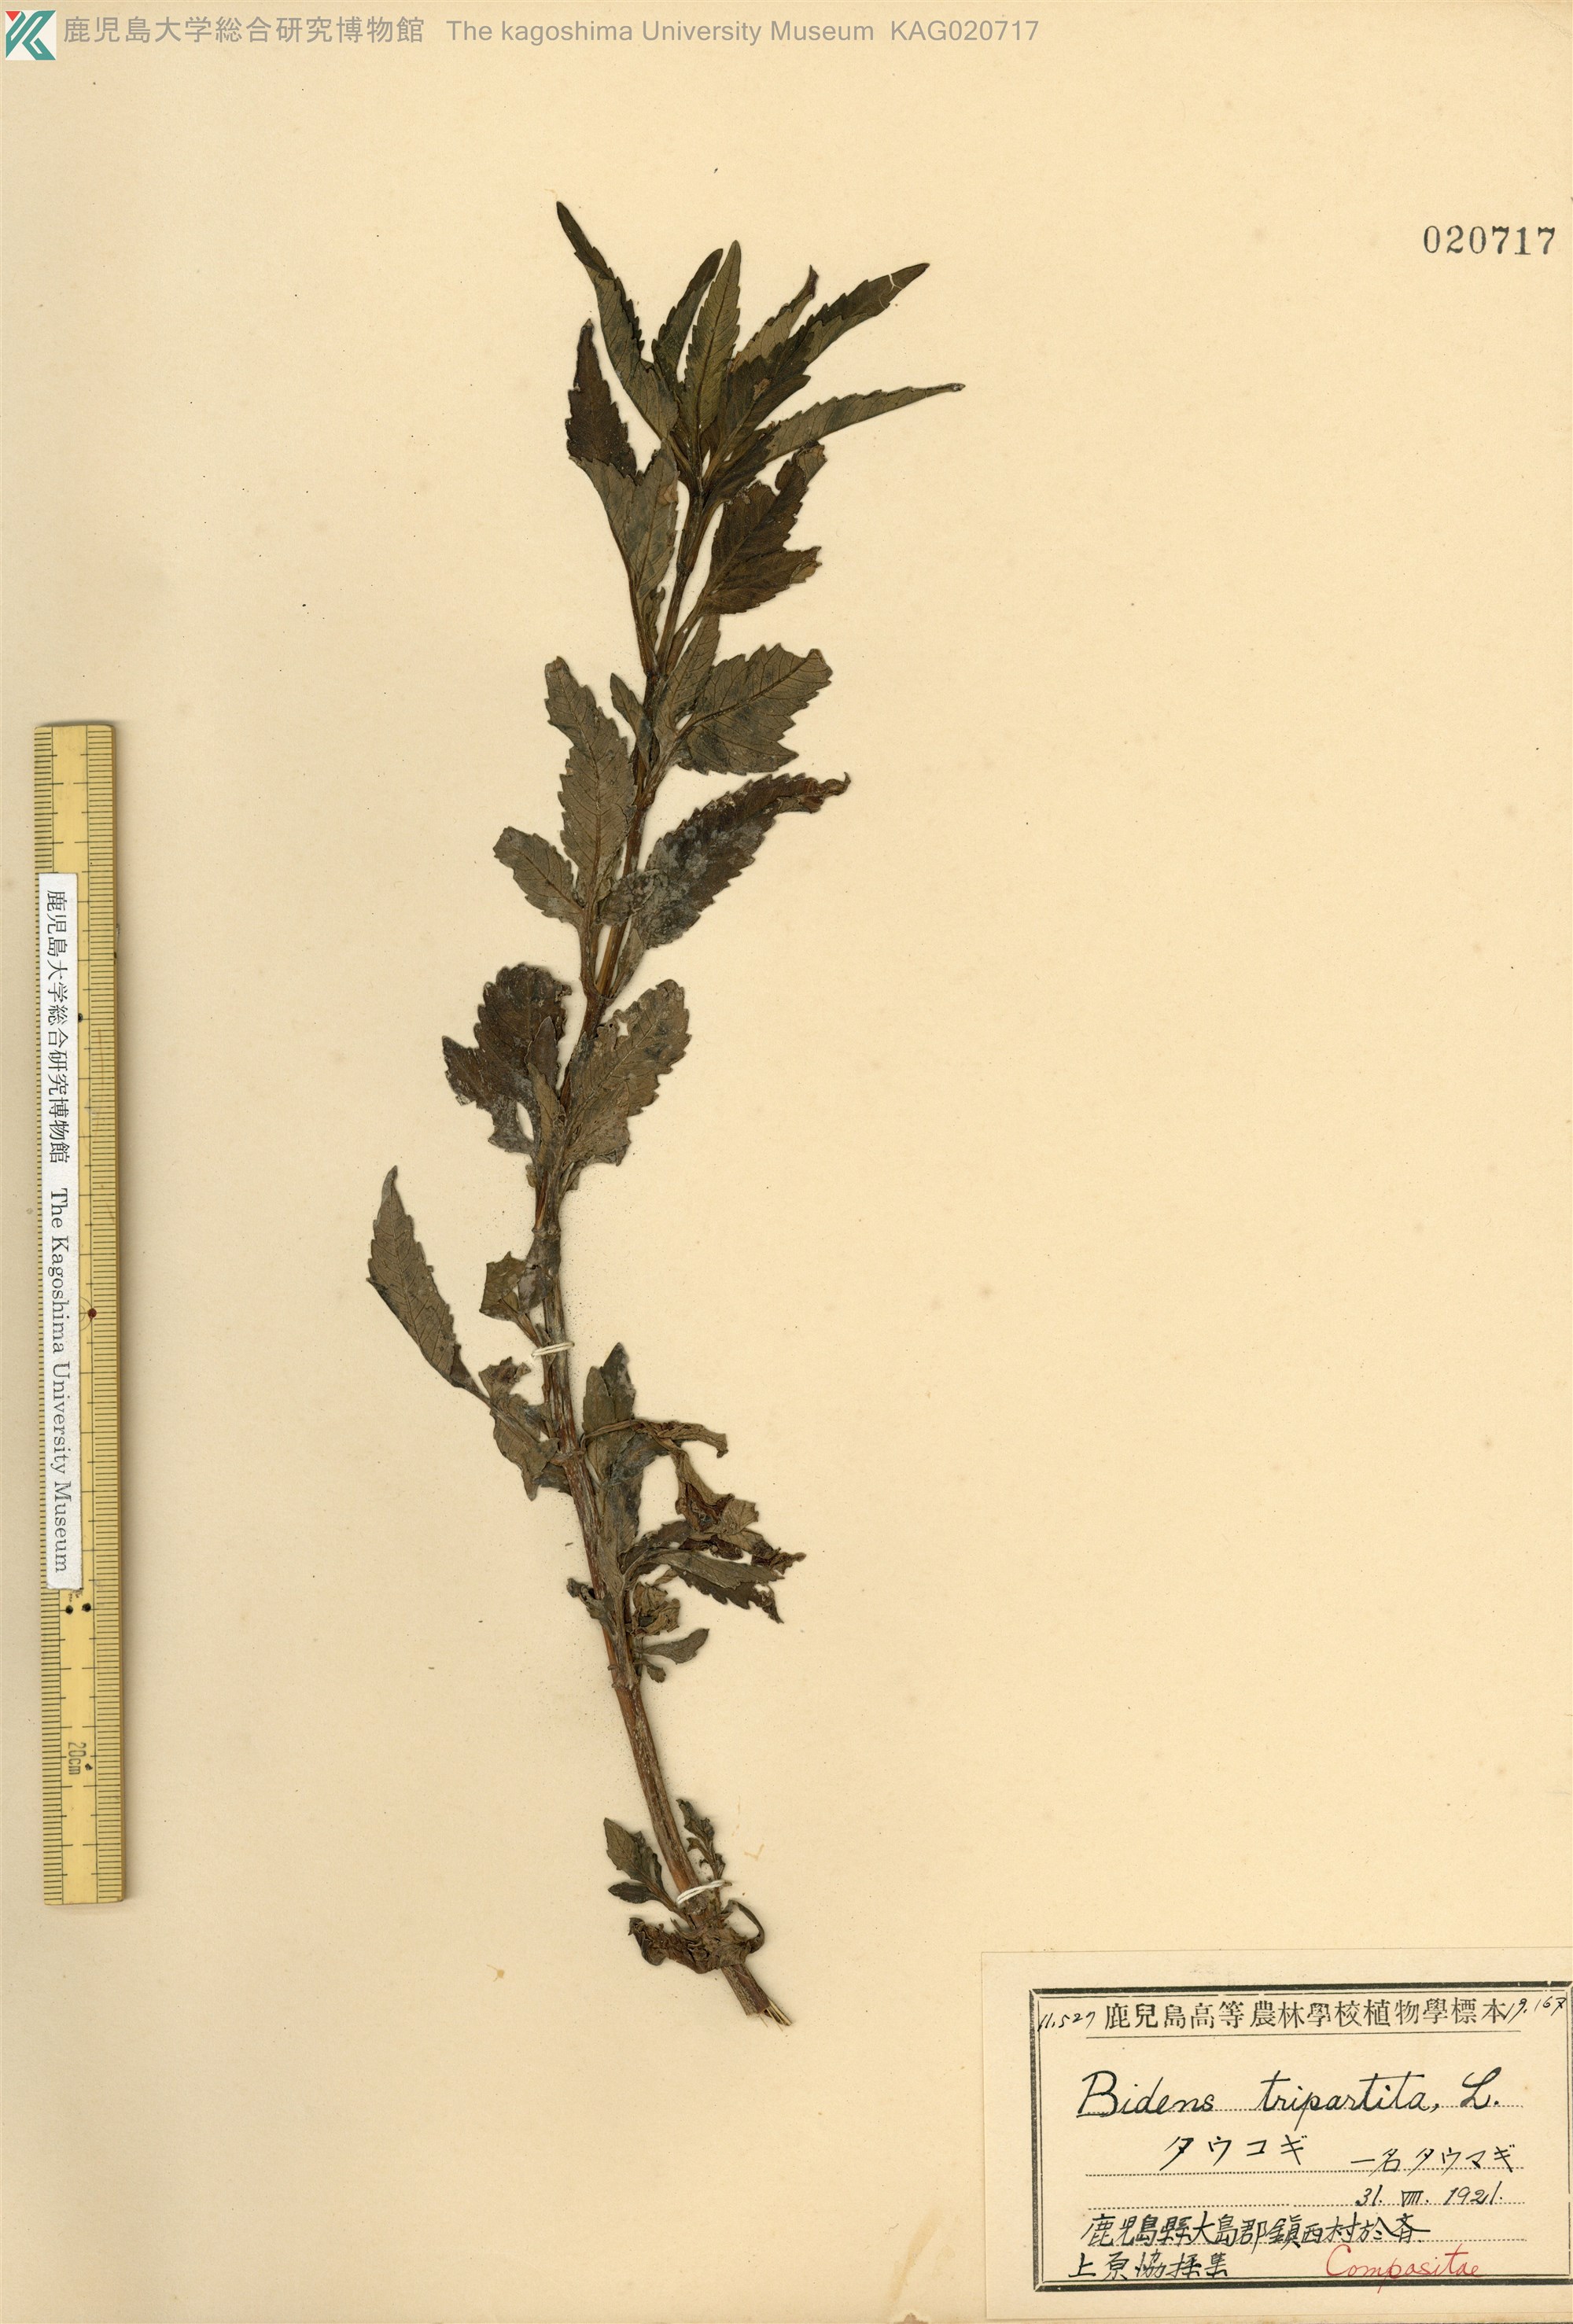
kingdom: Plantae
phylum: Tracheophyta
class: Magnoliopsida
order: Asterales
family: Asteraceae
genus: Bidens
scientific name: Bidens tripartita
